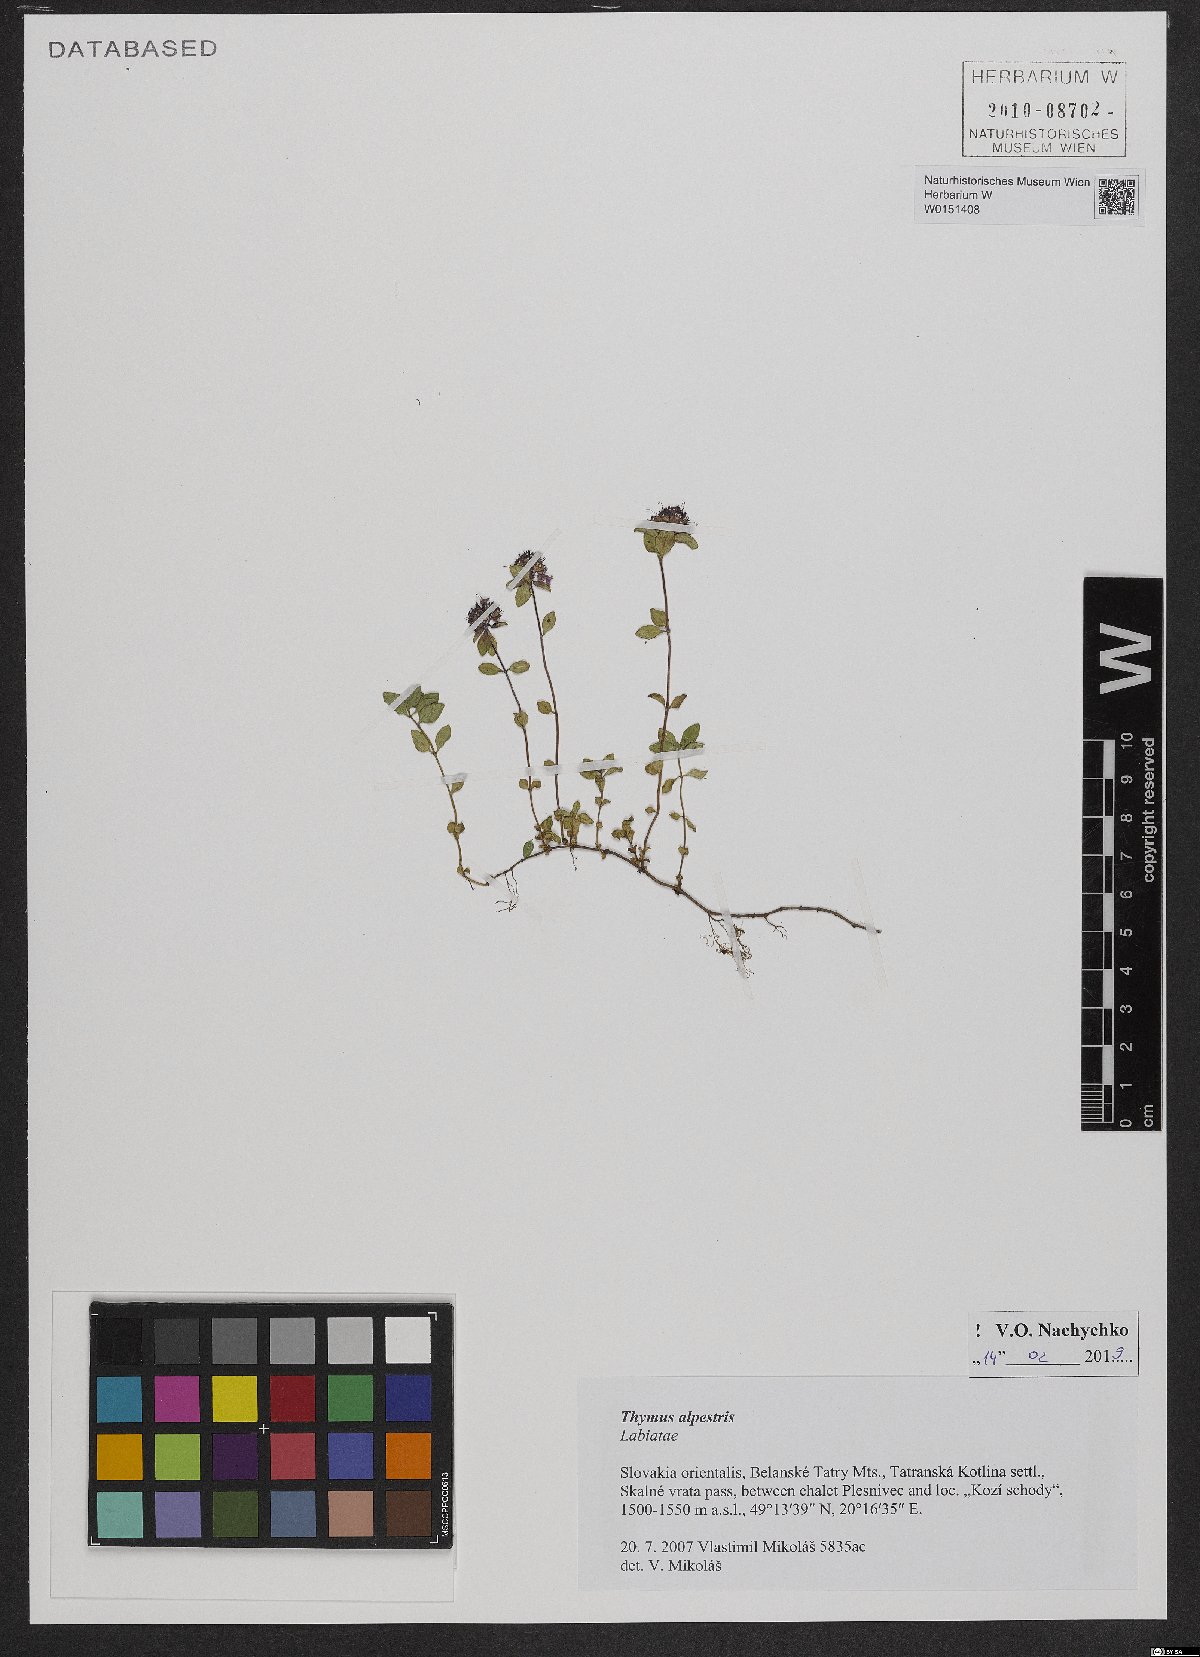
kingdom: Plantae
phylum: Tracheophyta
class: Magnoliopsida
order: Lamiales
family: Lamiaceae
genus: Thymus
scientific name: Thymus alpestris
